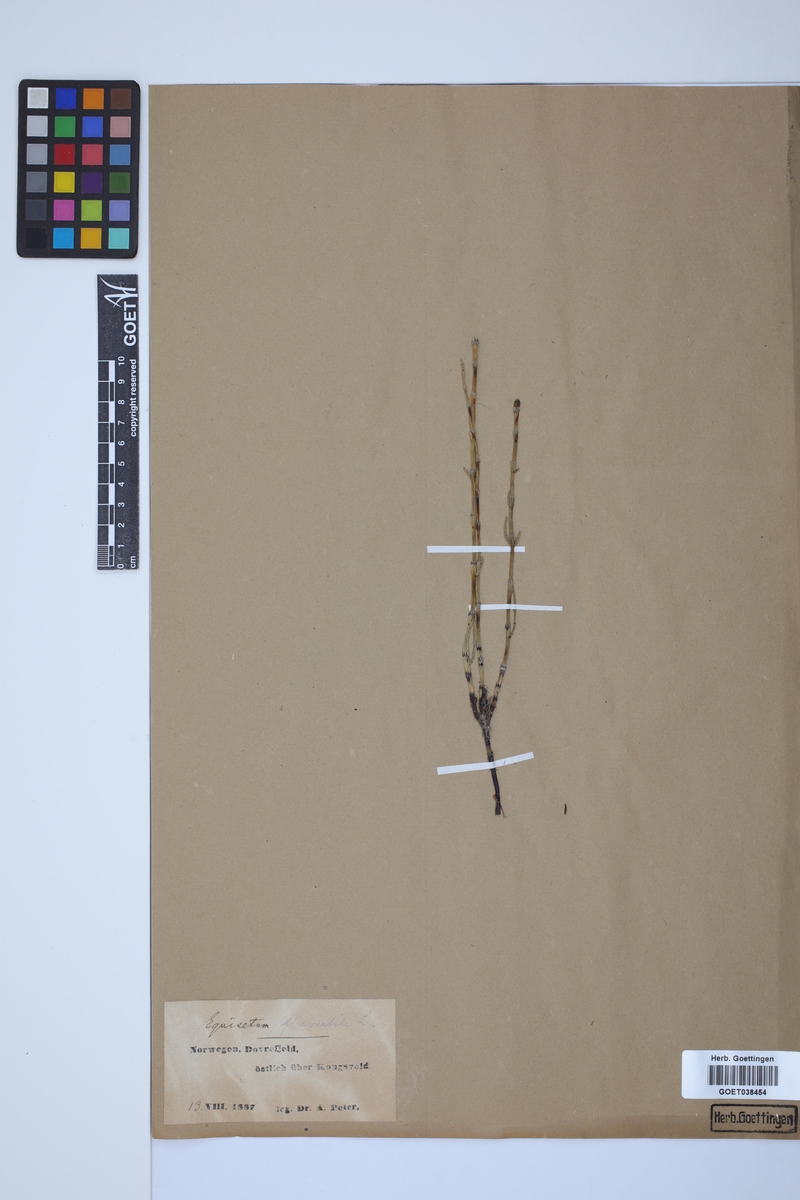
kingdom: Plantae
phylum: Tracheophyta
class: Polypodiopsida
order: Equisetales
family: Equisetaceae
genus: Equisetum
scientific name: Equisetum fluviatile
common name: Water horsetail
